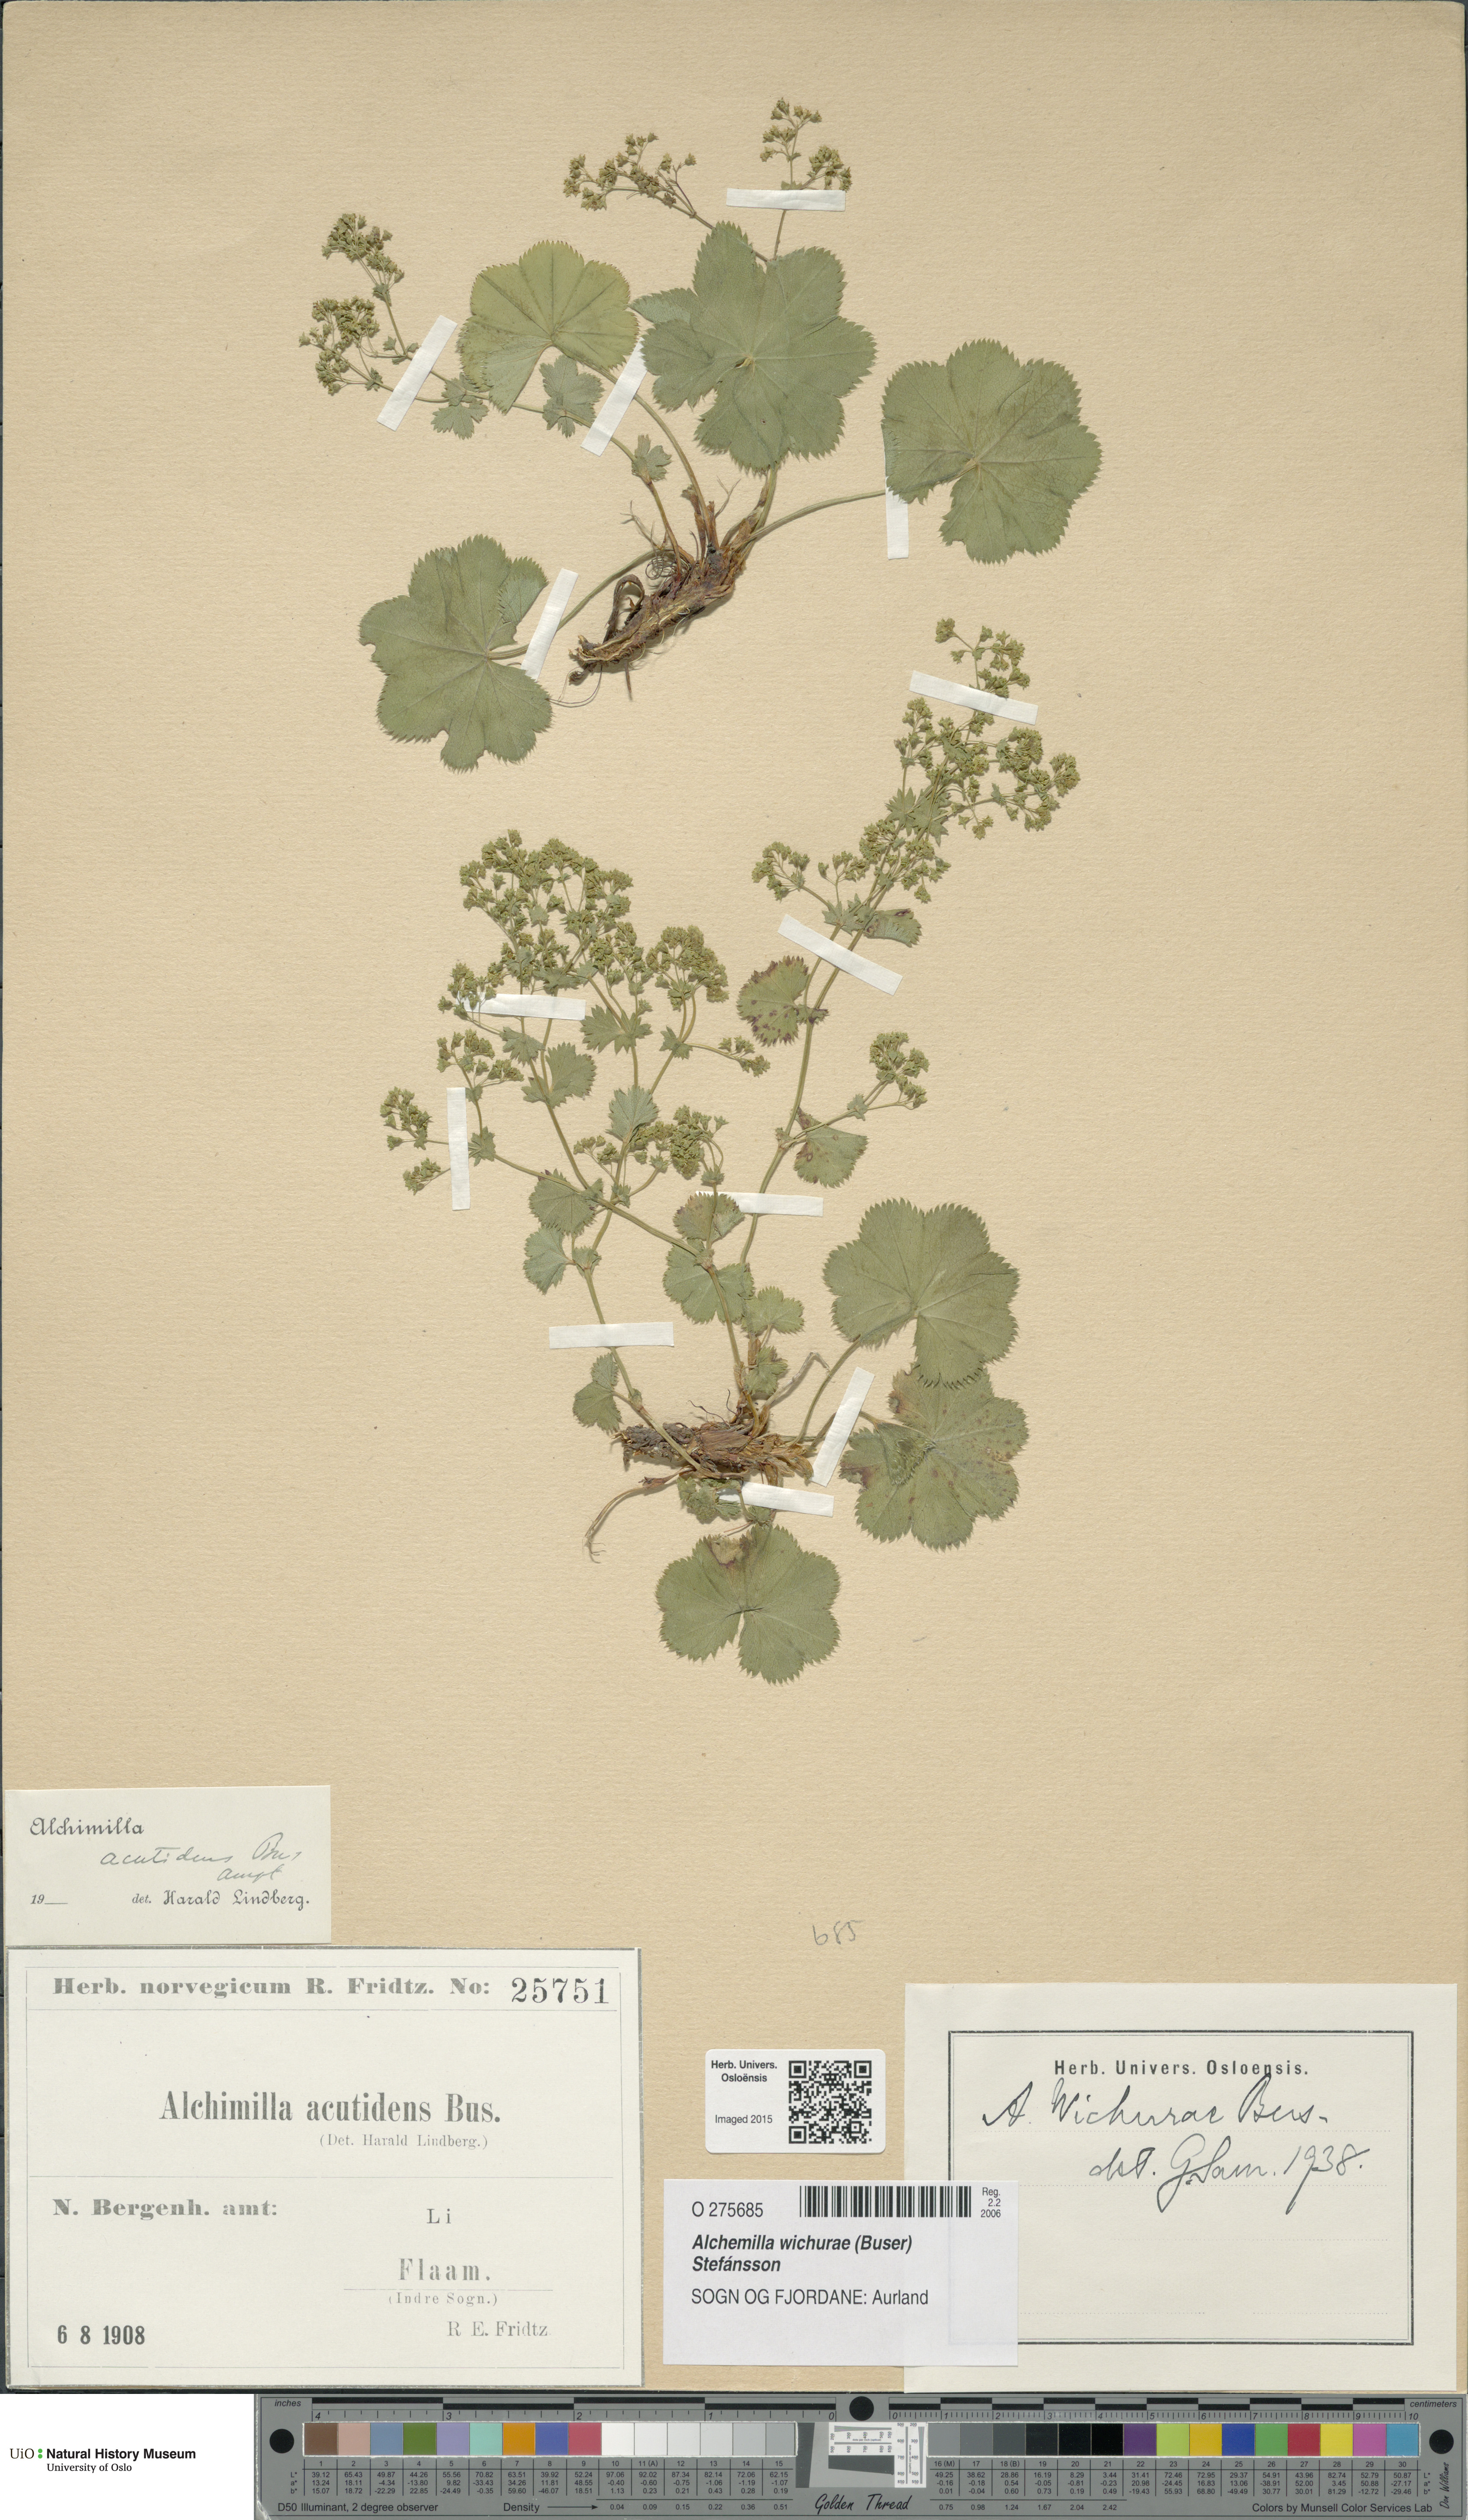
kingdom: Plantae
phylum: Tracheophyta
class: Magnoliopsida
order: Rosales
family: Rosaceae
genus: Alchemilla
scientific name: Alchemilla wichurae
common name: Rock lady's mantle
